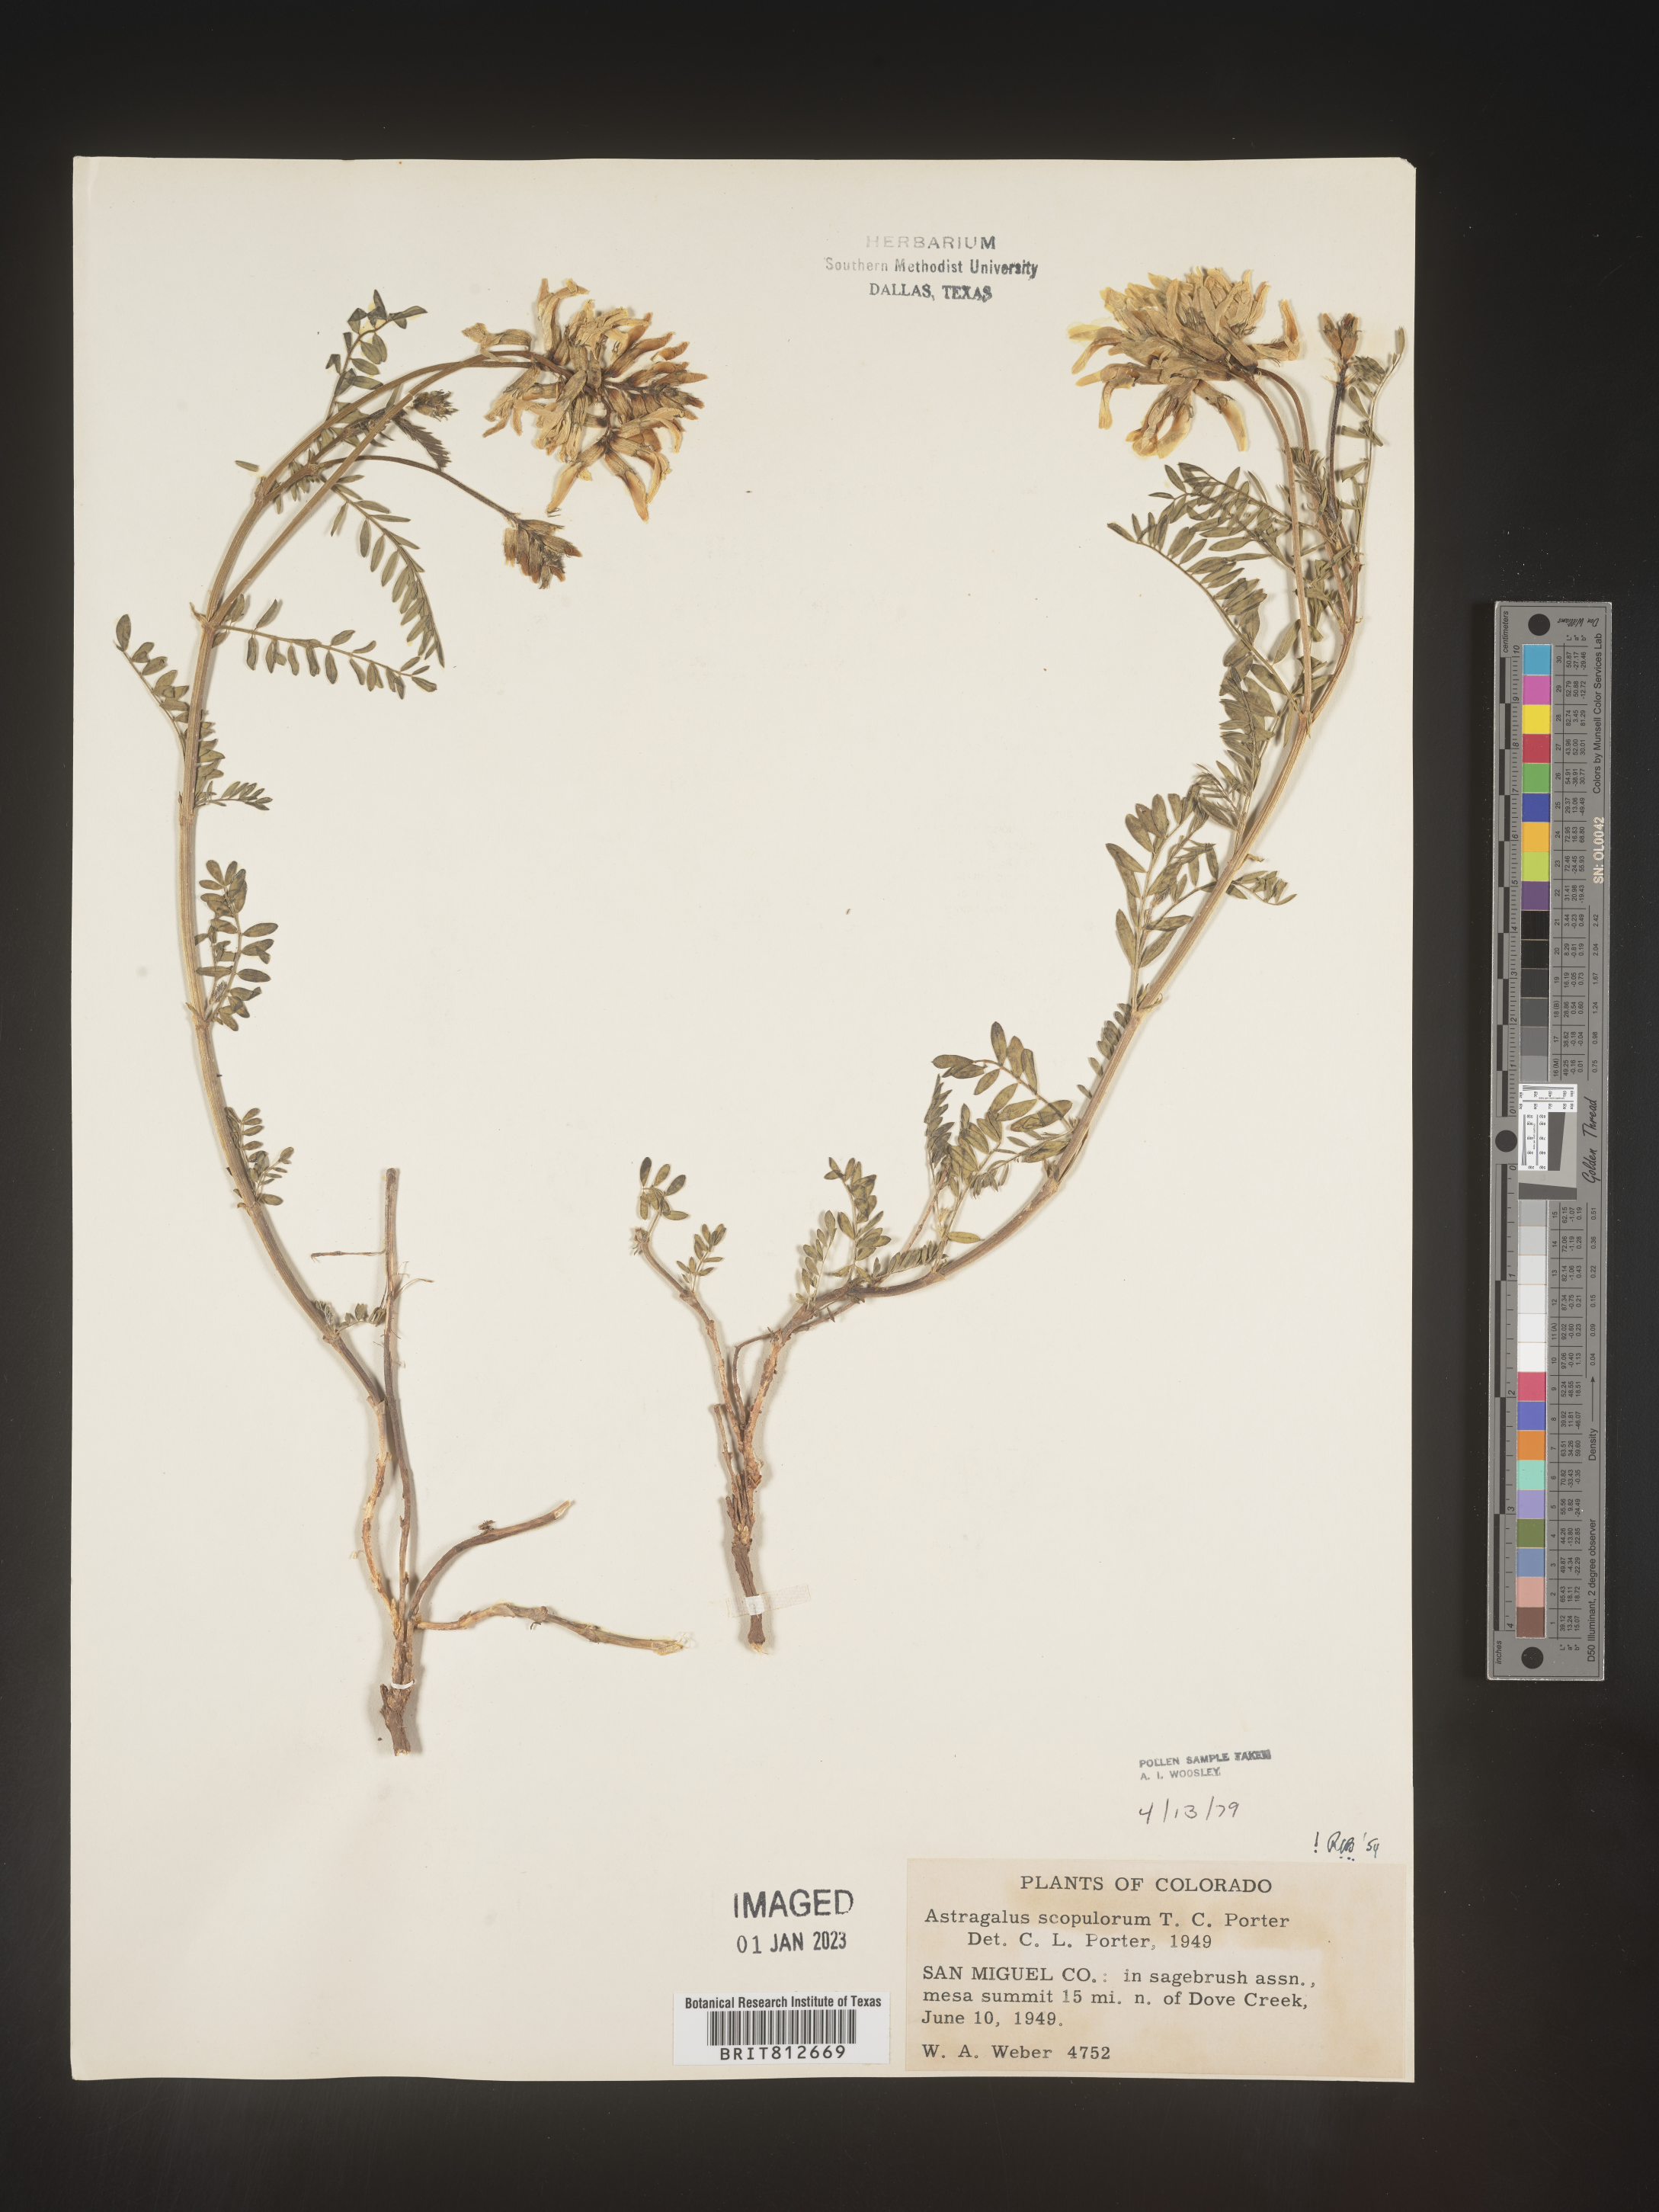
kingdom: Plantae
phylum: Tracheophyta
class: Magnoliopsida
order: Fabales
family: Fabaceae
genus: Astragalus
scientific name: Astragalus
